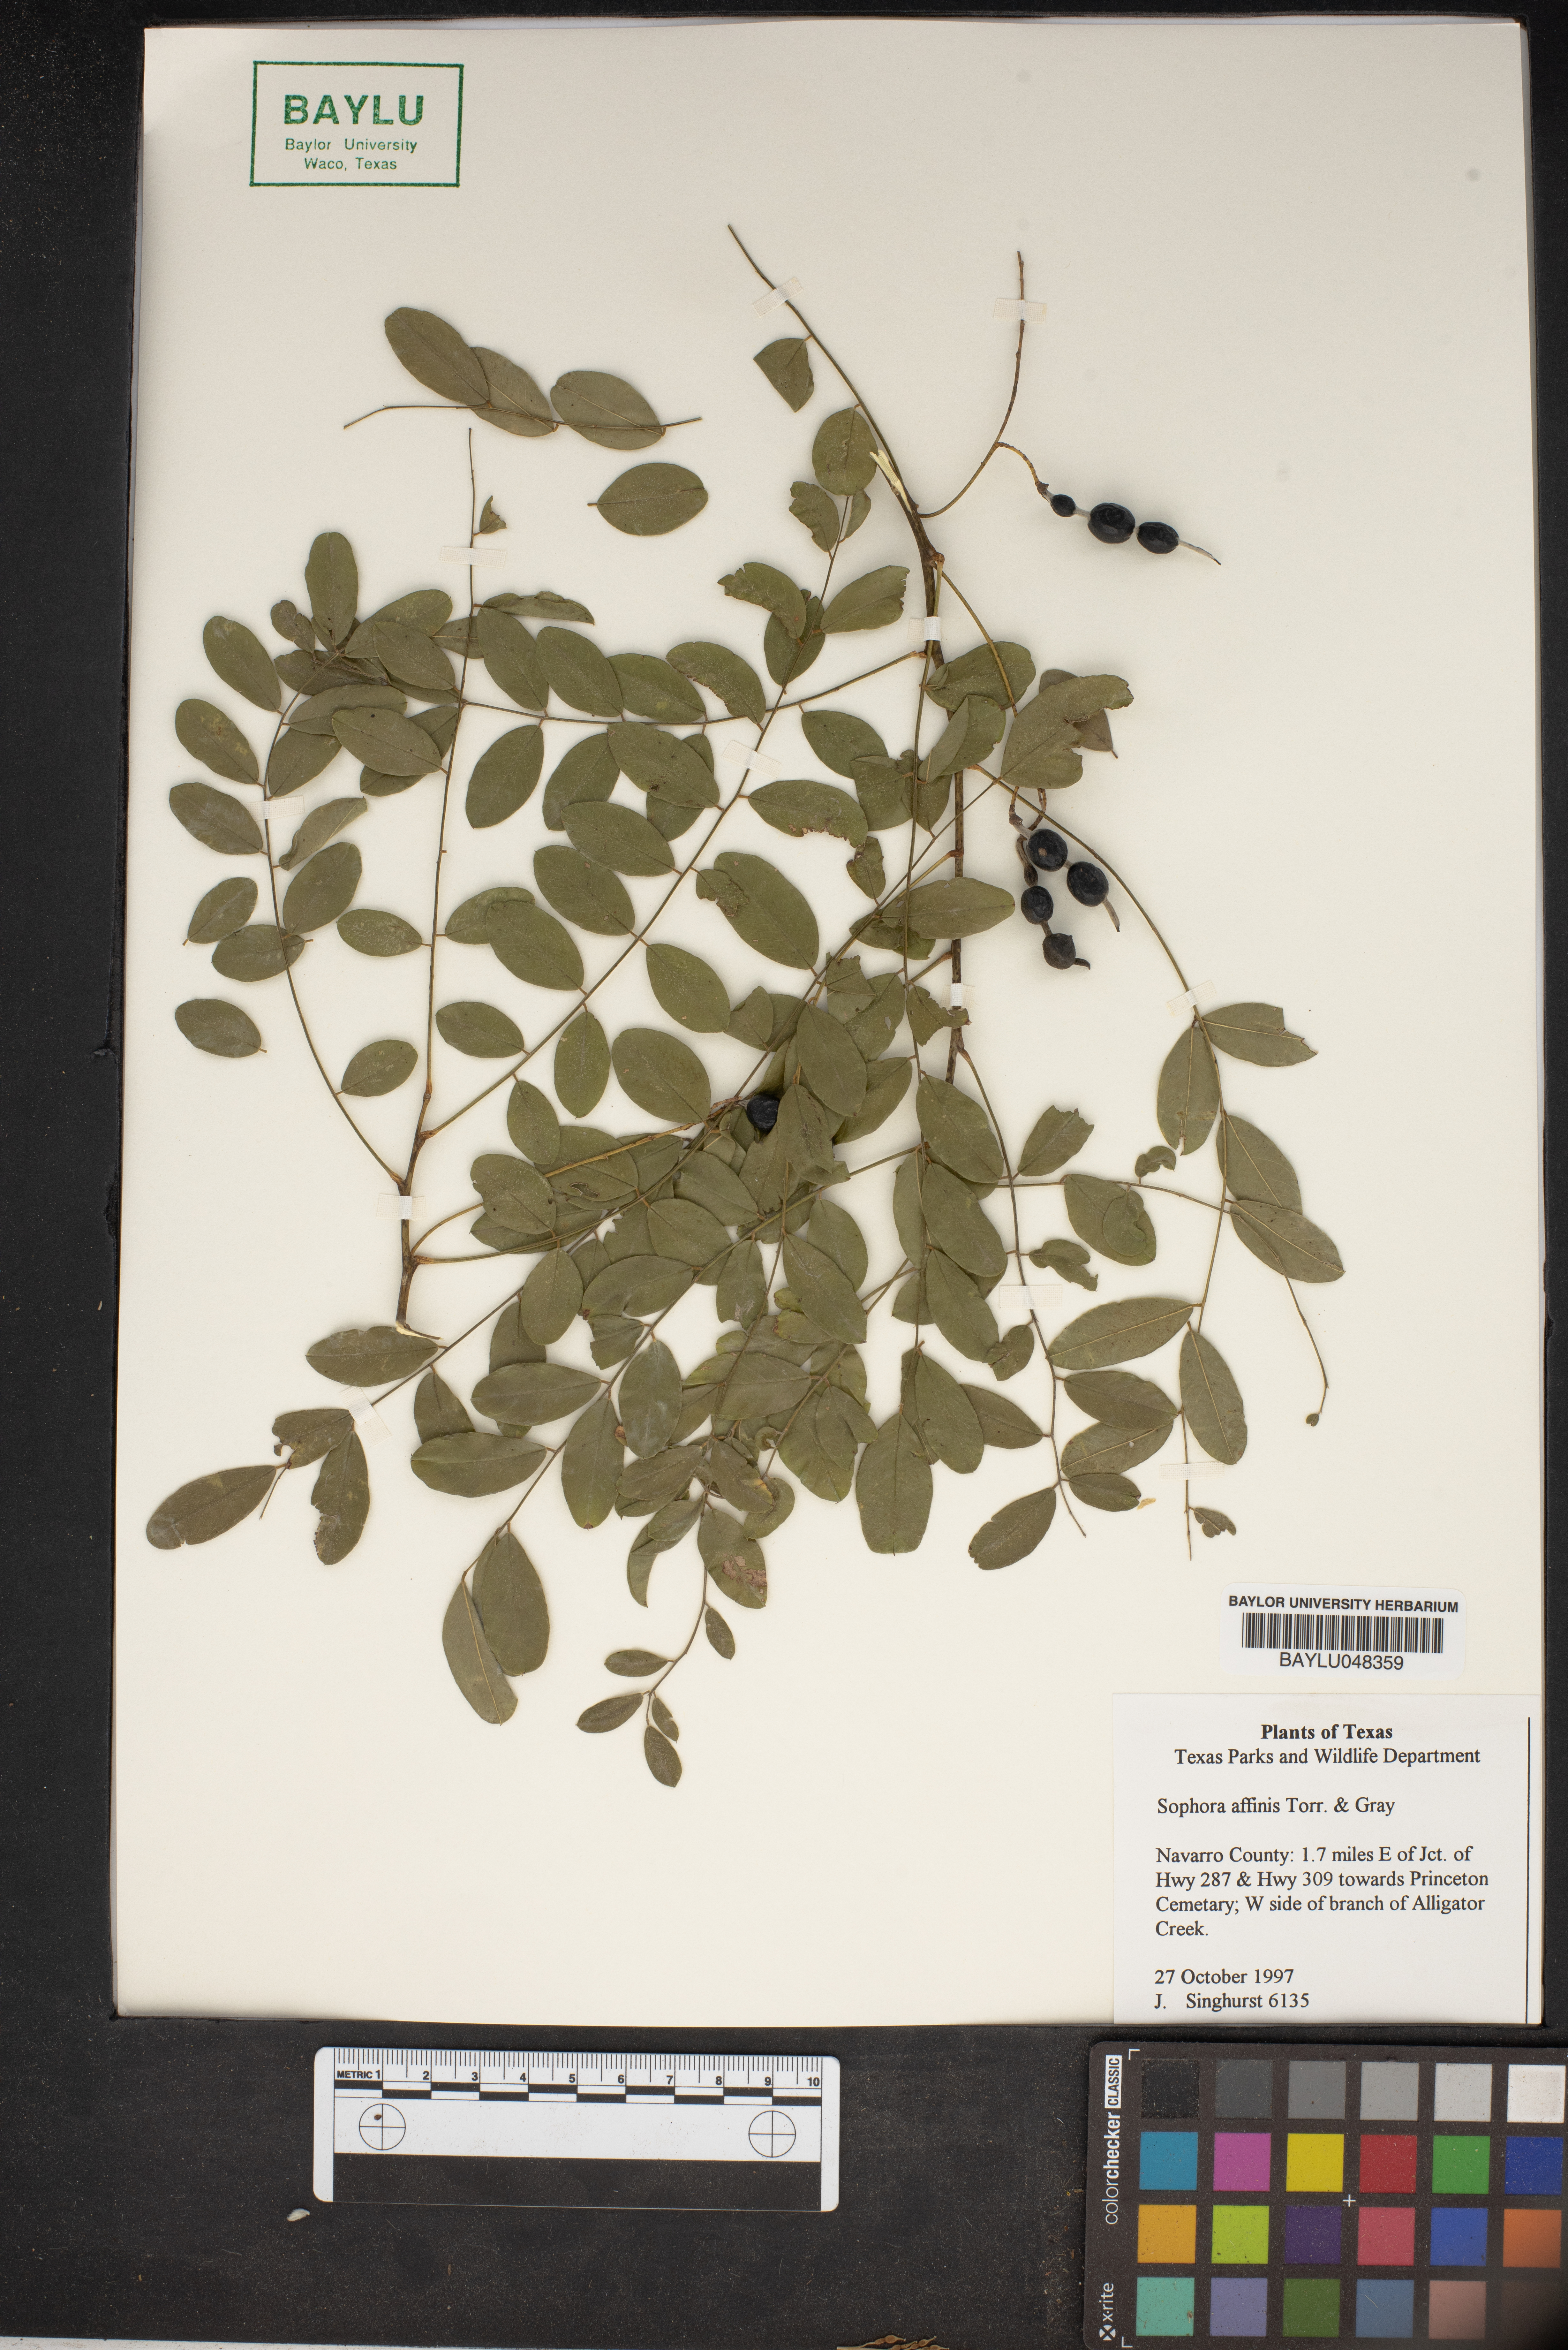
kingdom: Plantae
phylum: Tracheophyta
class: Magnoliopsida
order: Fabales
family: Fabaceae
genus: Styphnolobium
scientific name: Styphnolobium affine
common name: Texas sophora
